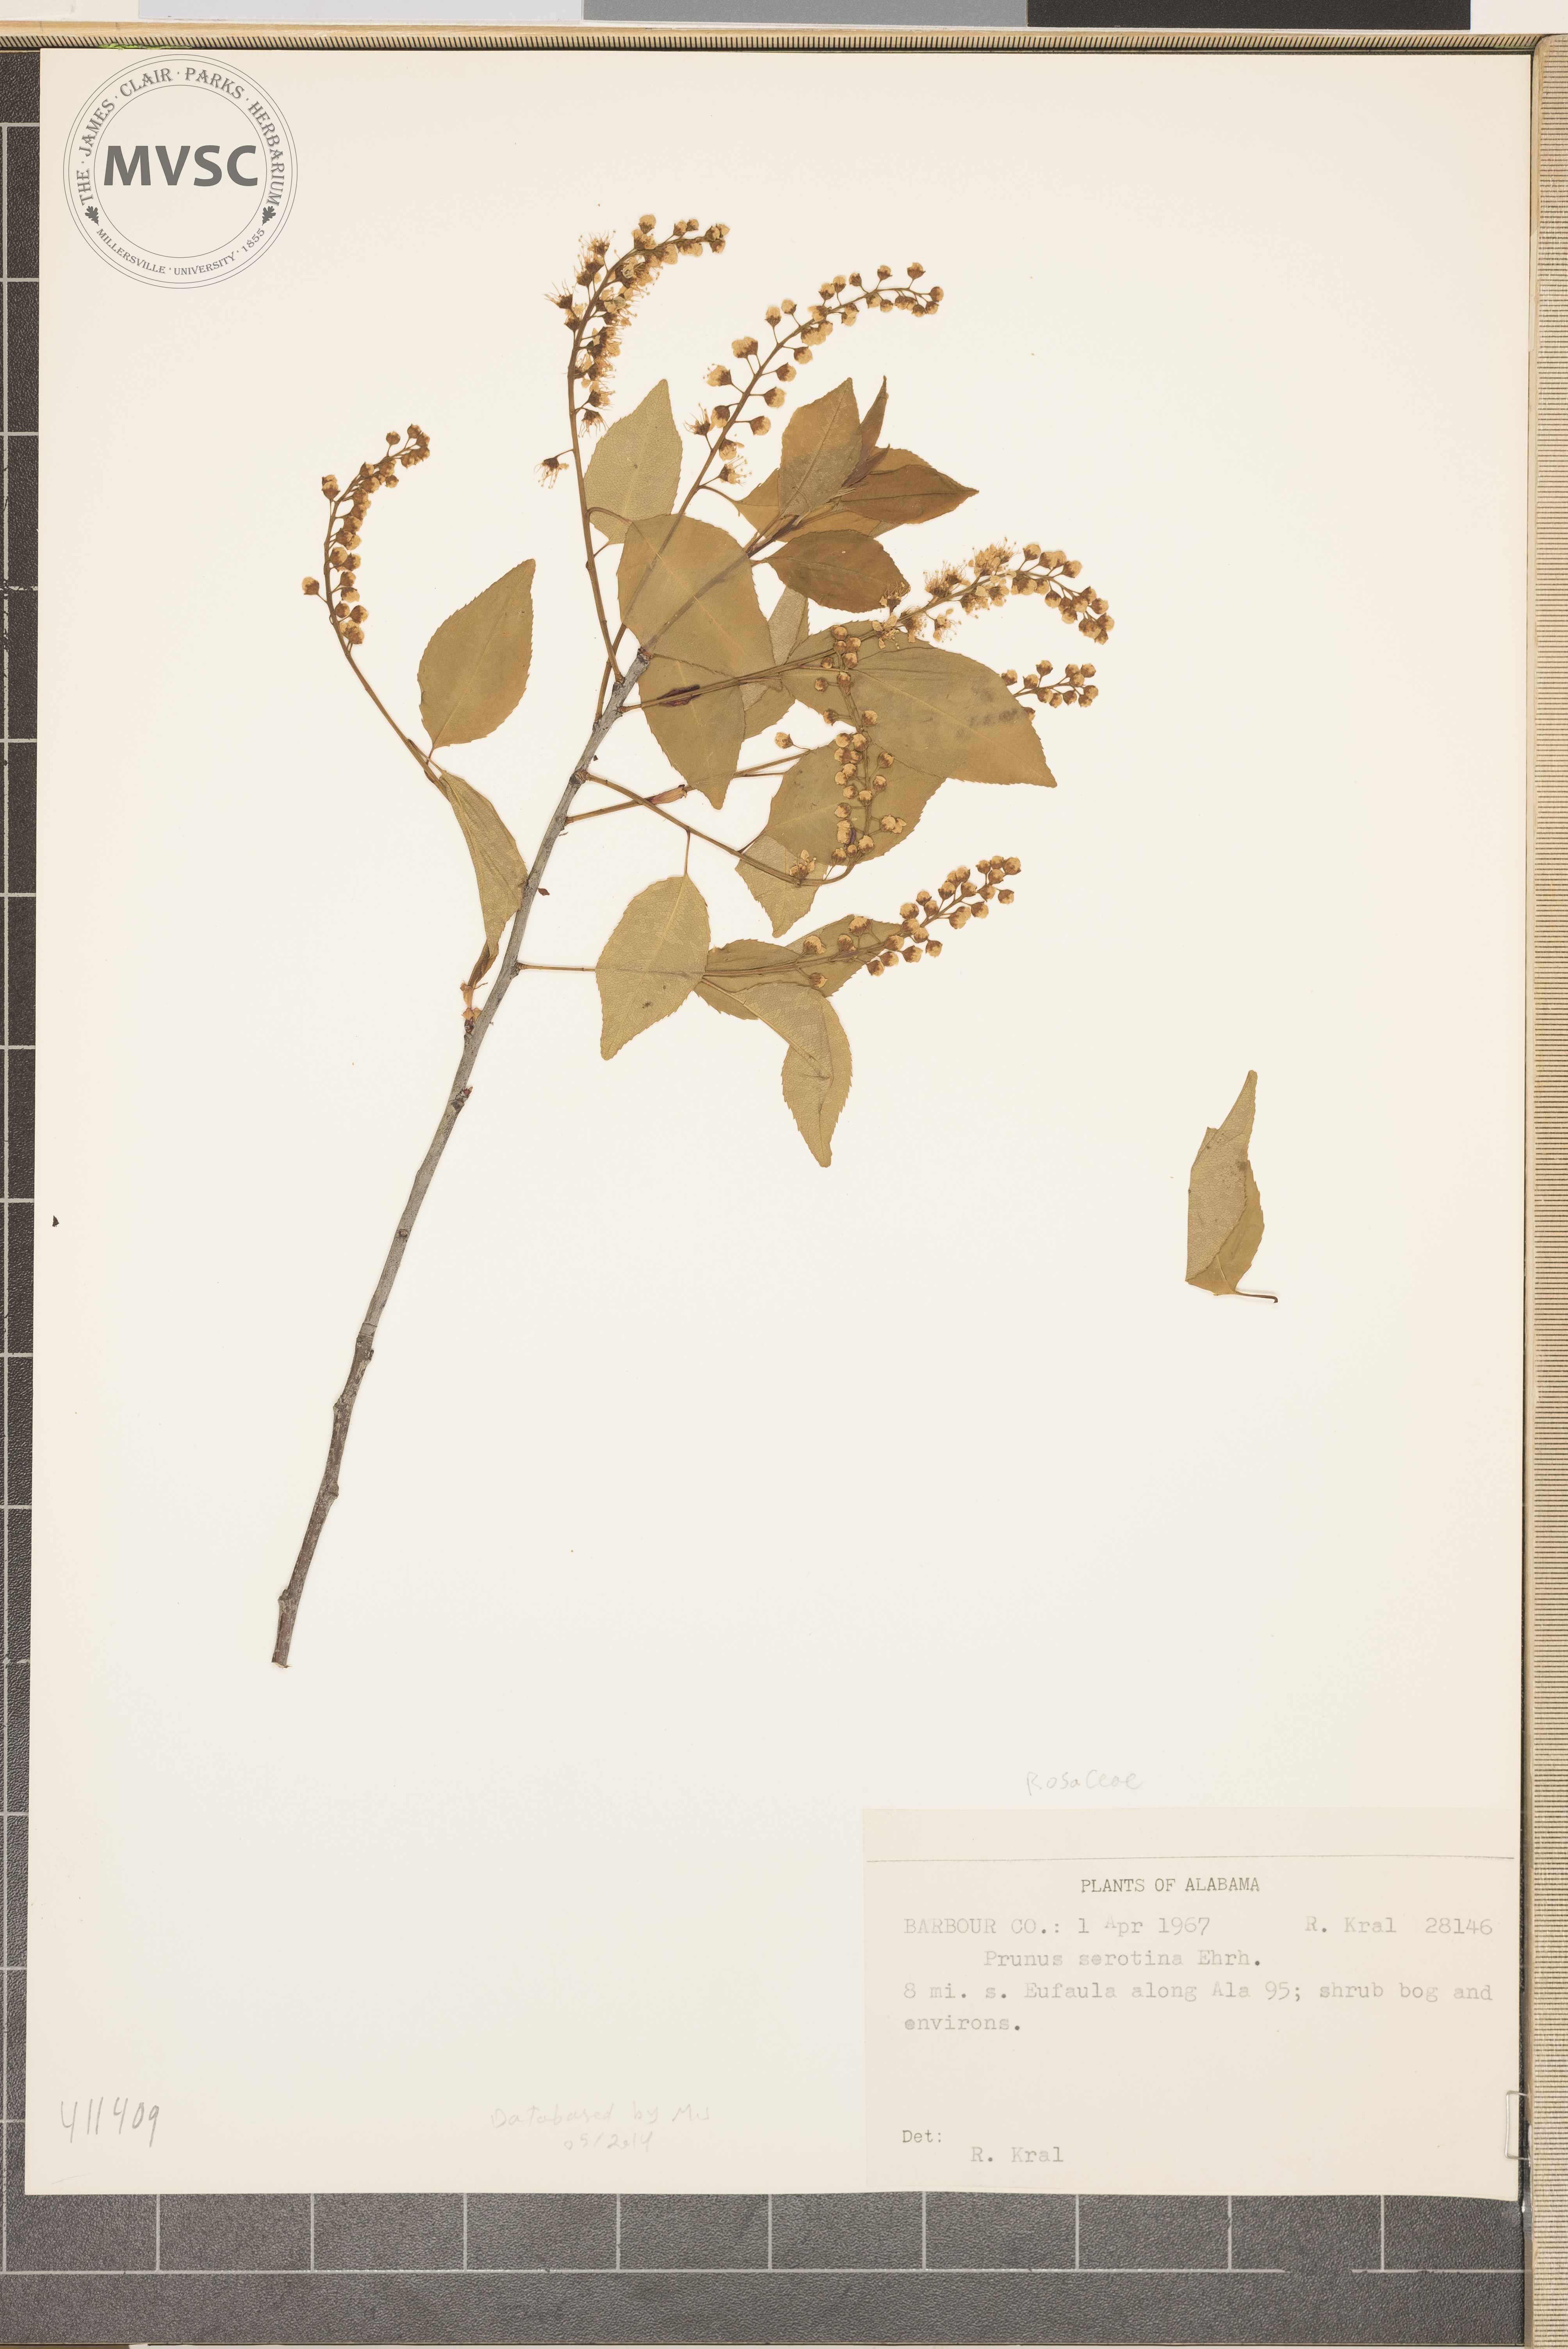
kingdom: Plantae
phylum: Tracheophyta
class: Magnoliopsida
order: Rosales
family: Rosaceae
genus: Prunus
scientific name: Prunus serotina
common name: Black cherry
